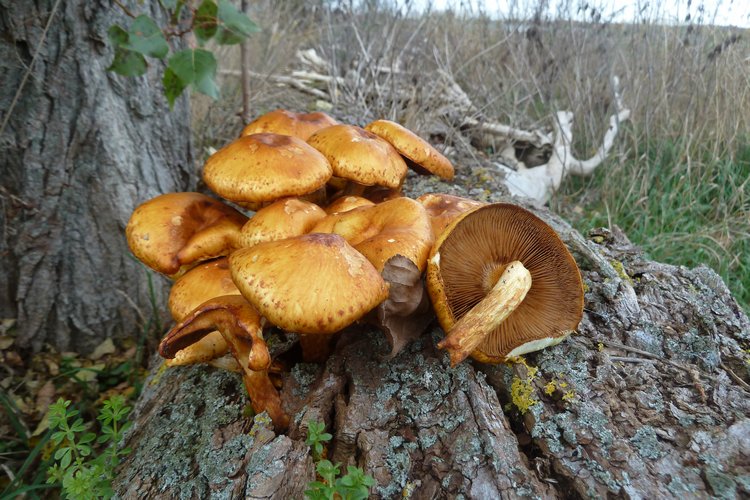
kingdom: Fungi
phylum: Basidiomycota
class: Agaricomycetes
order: Agaricales
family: Strophariaceae
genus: Pholiota
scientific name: Pholiota adiposa
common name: højtsiddende skælhat
